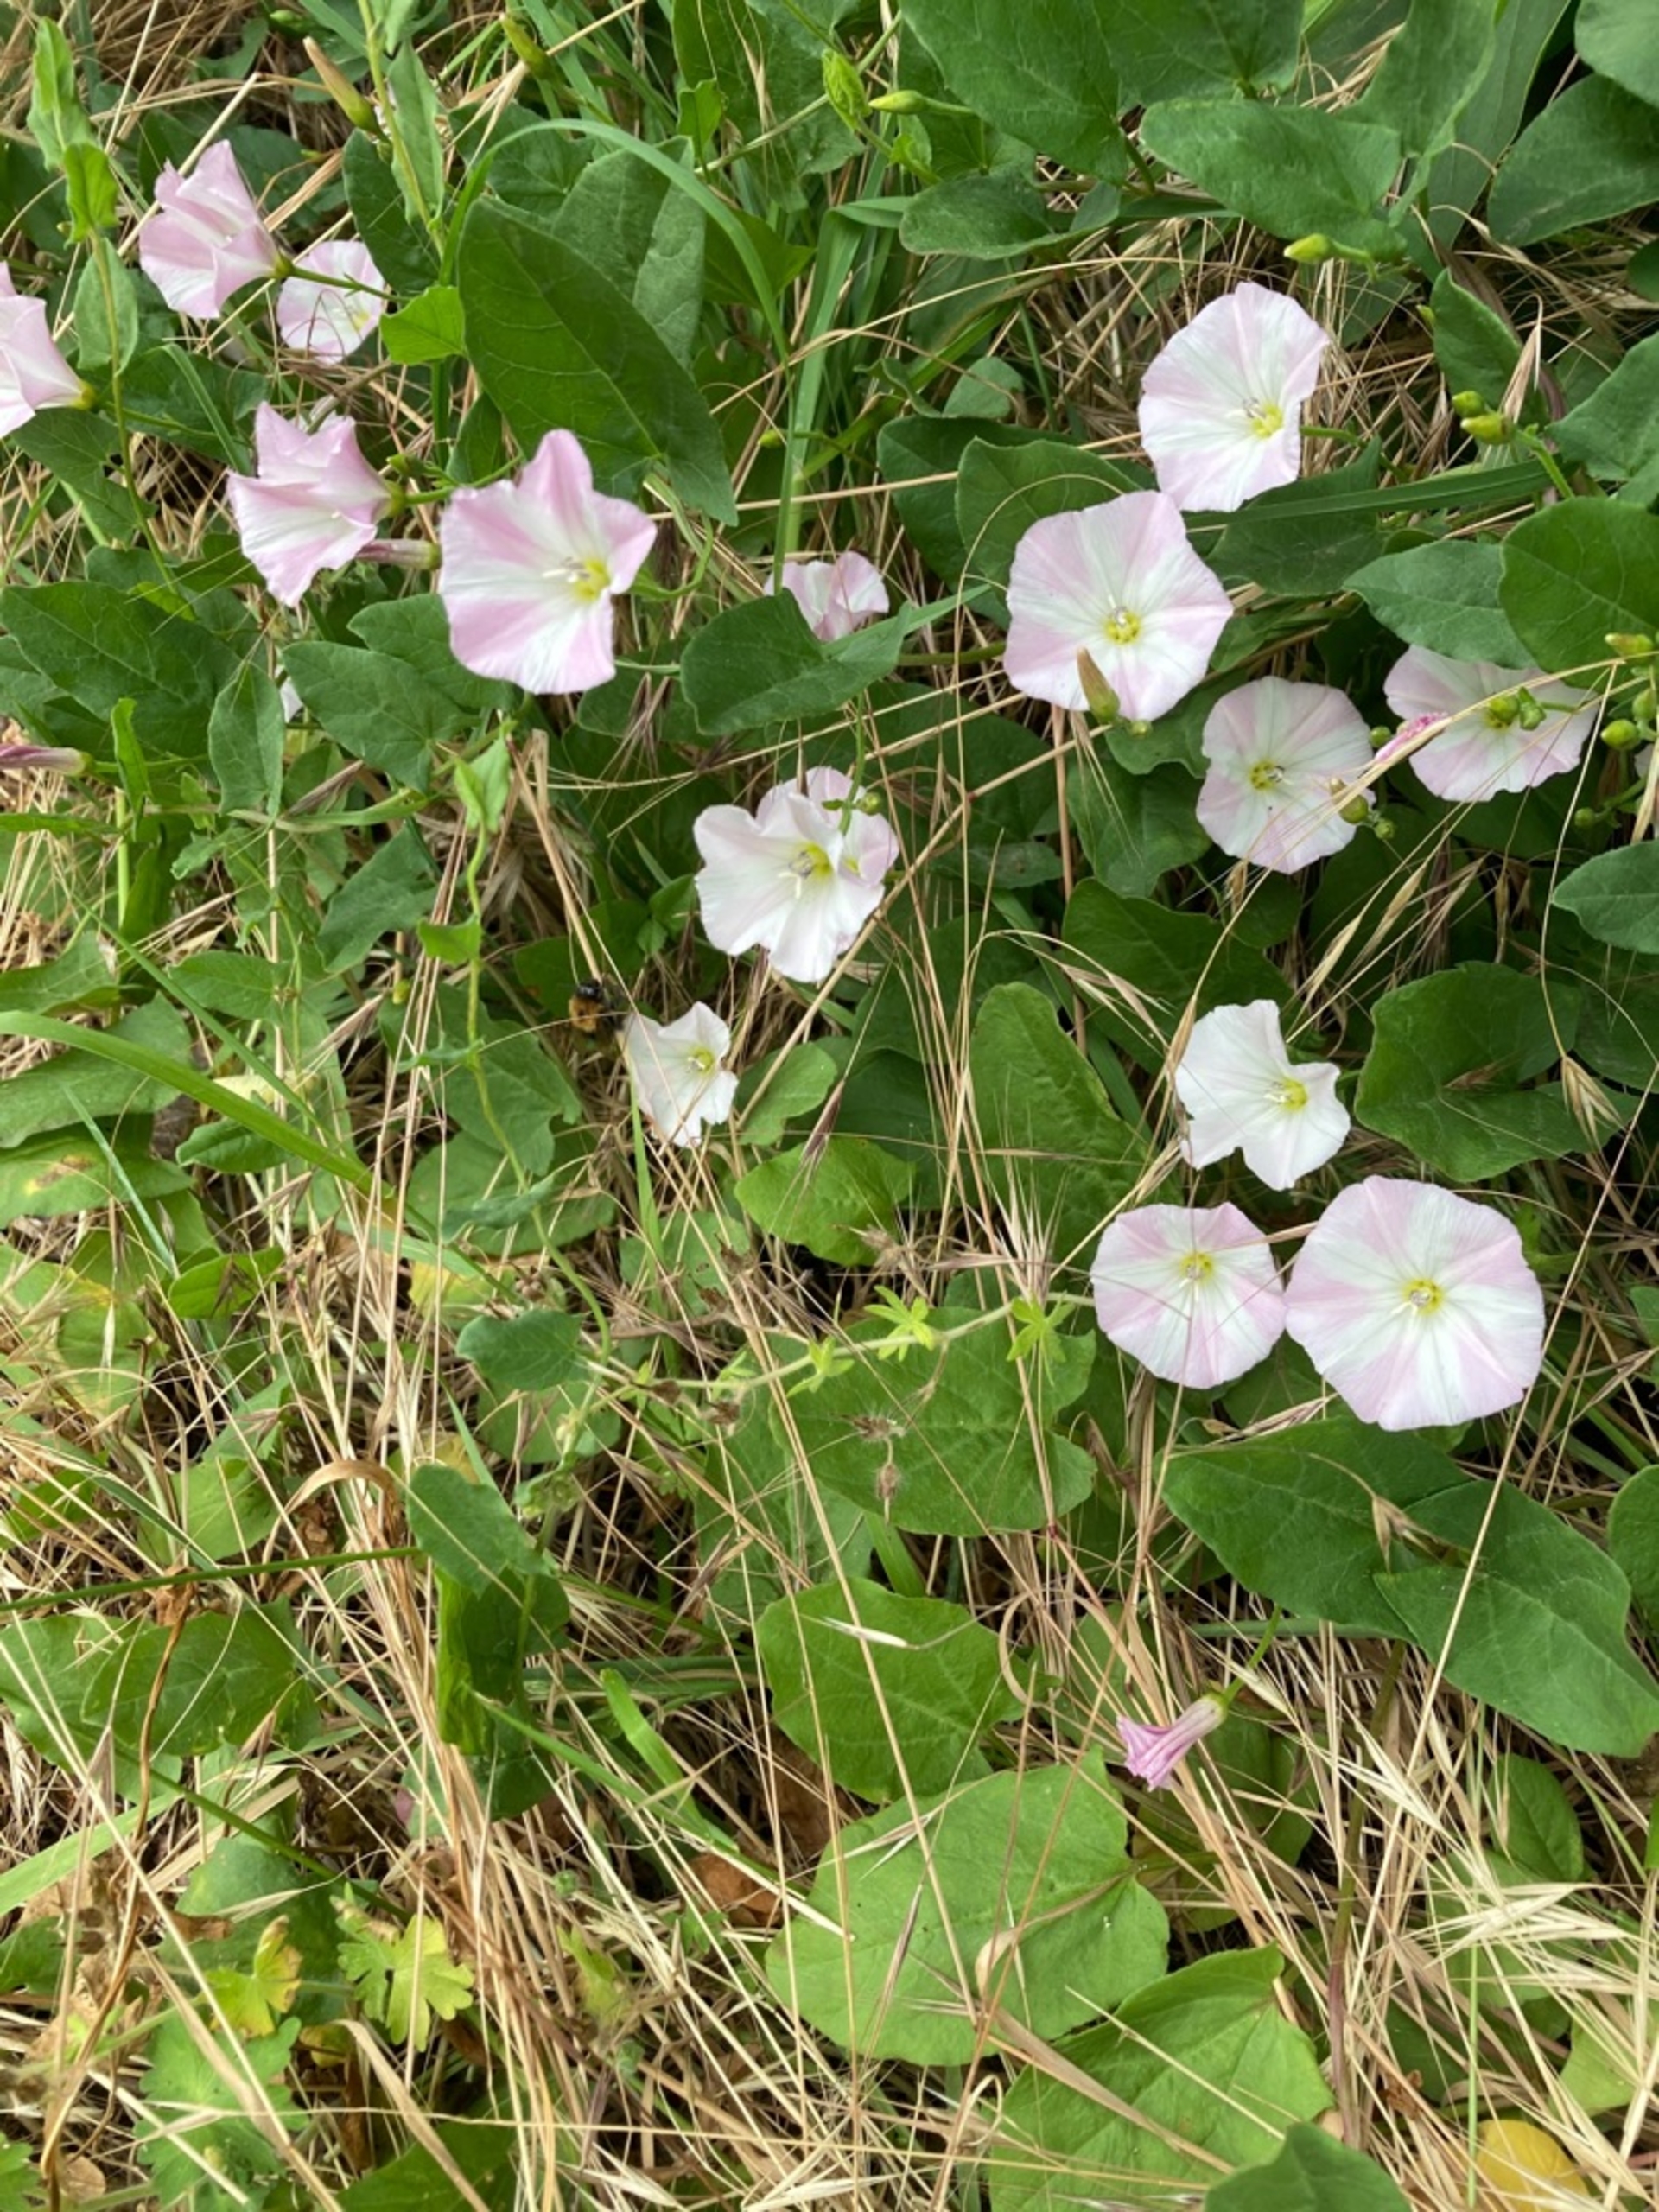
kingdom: Plantae
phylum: Tracheophyta
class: Magnoliopsida
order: Solanales
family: Convolvulaceae
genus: Convolvulus
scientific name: Convolvulus arvensis
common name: Ager-snerle
